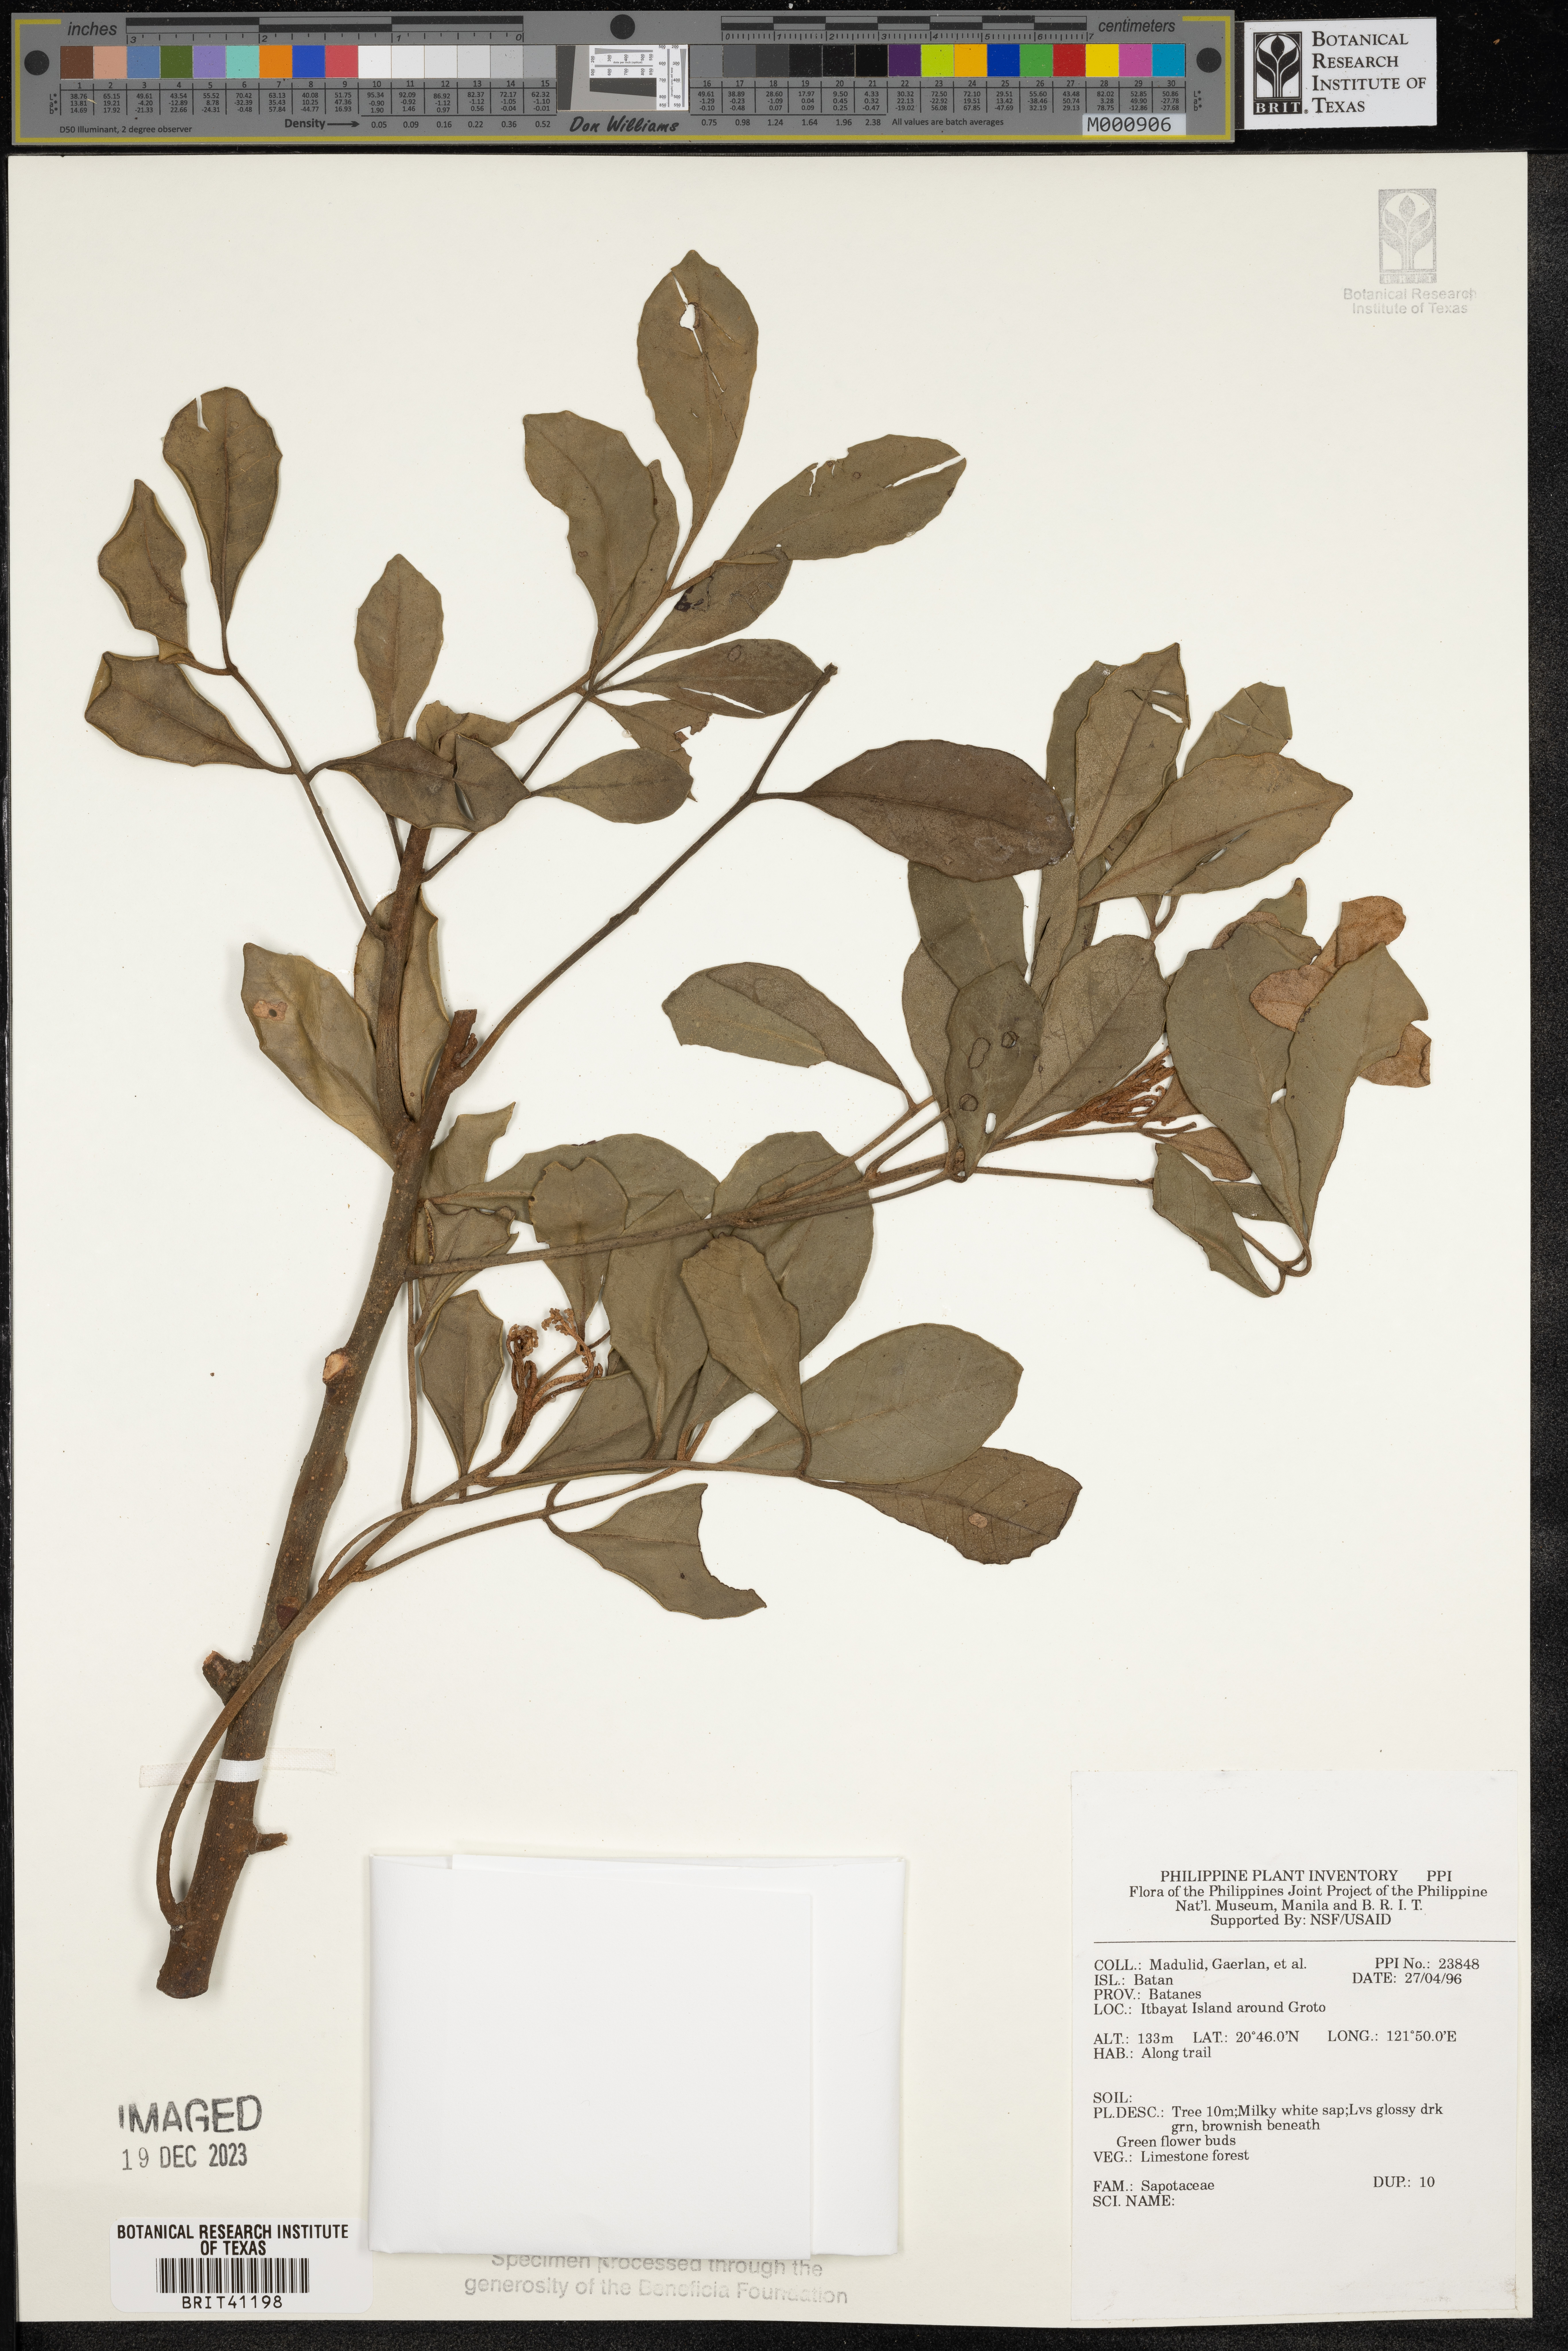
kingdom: Plantae
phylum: Tracheophyta
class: Magnoliopsida
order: Ericales
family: Sapotaceae
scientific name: Sapotaceae
